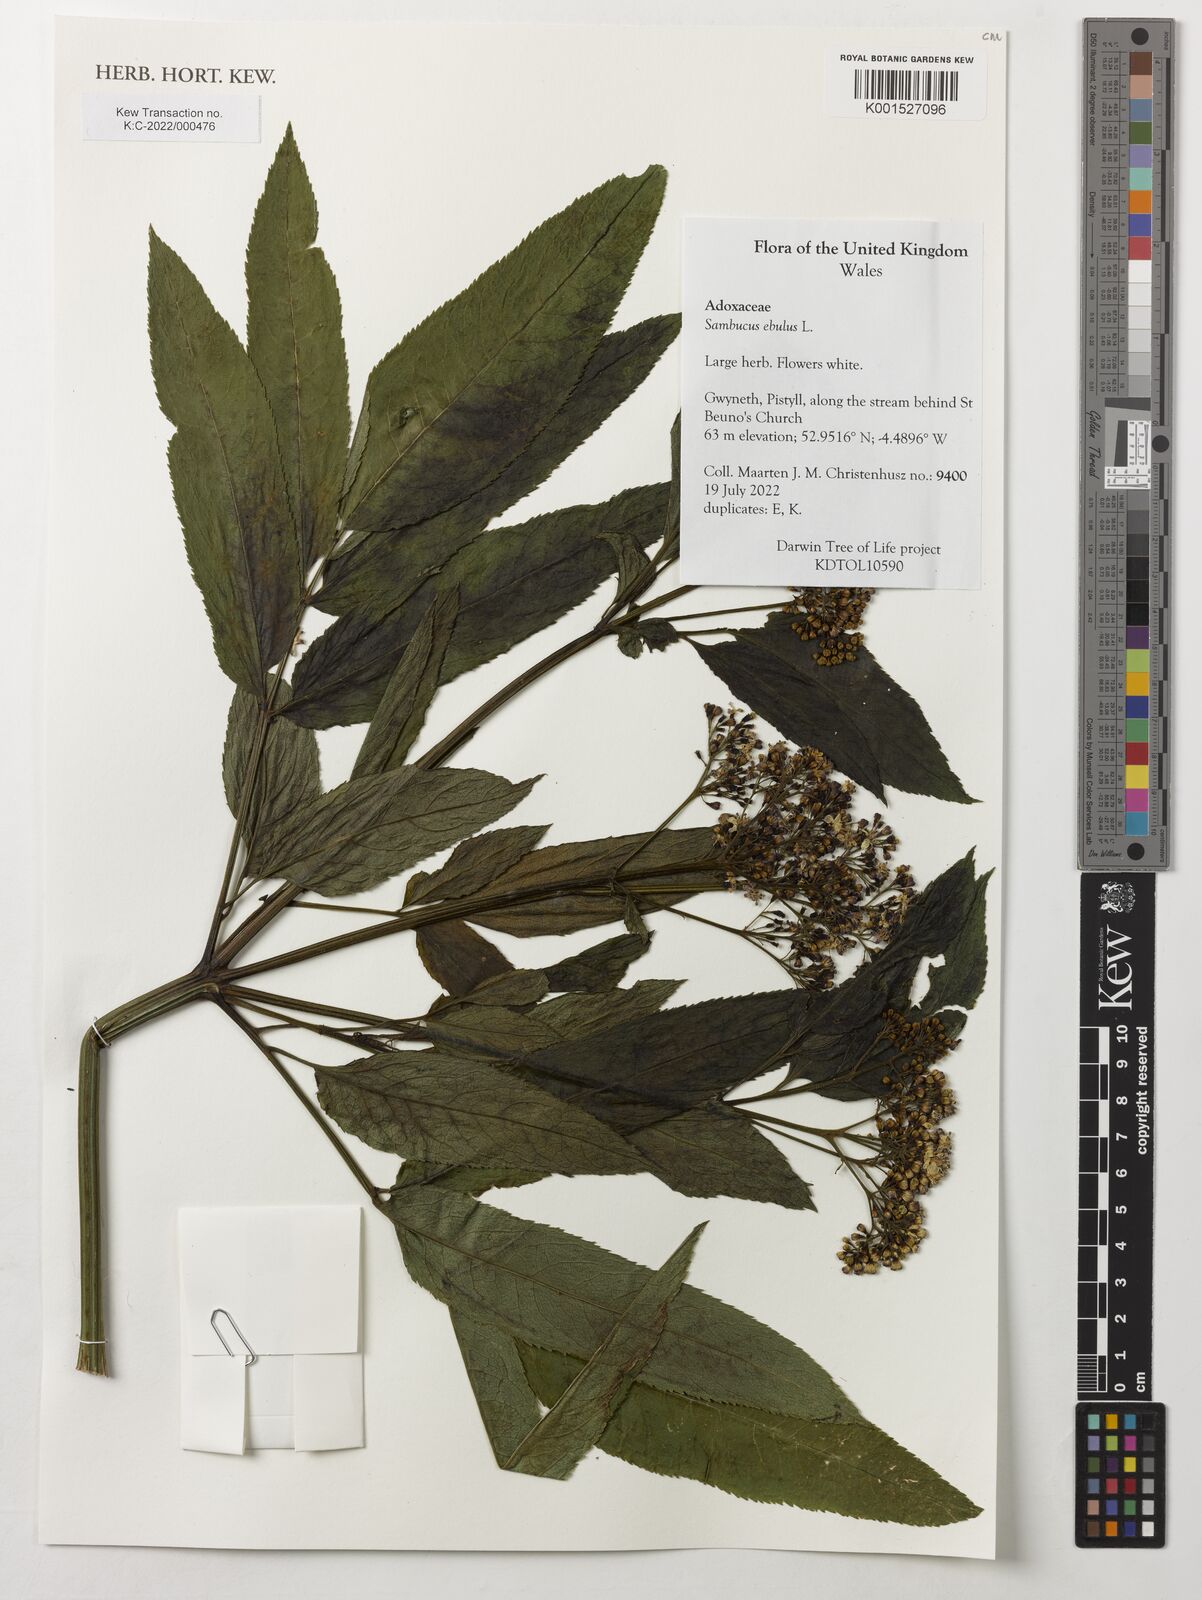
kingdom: Plantae
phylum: Tracheophyta
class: Magnoliopsida
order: Dipsacales
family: Viburnaceae
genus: Sambucus
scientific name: Sambucus ebulus
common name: Dwarf elder
